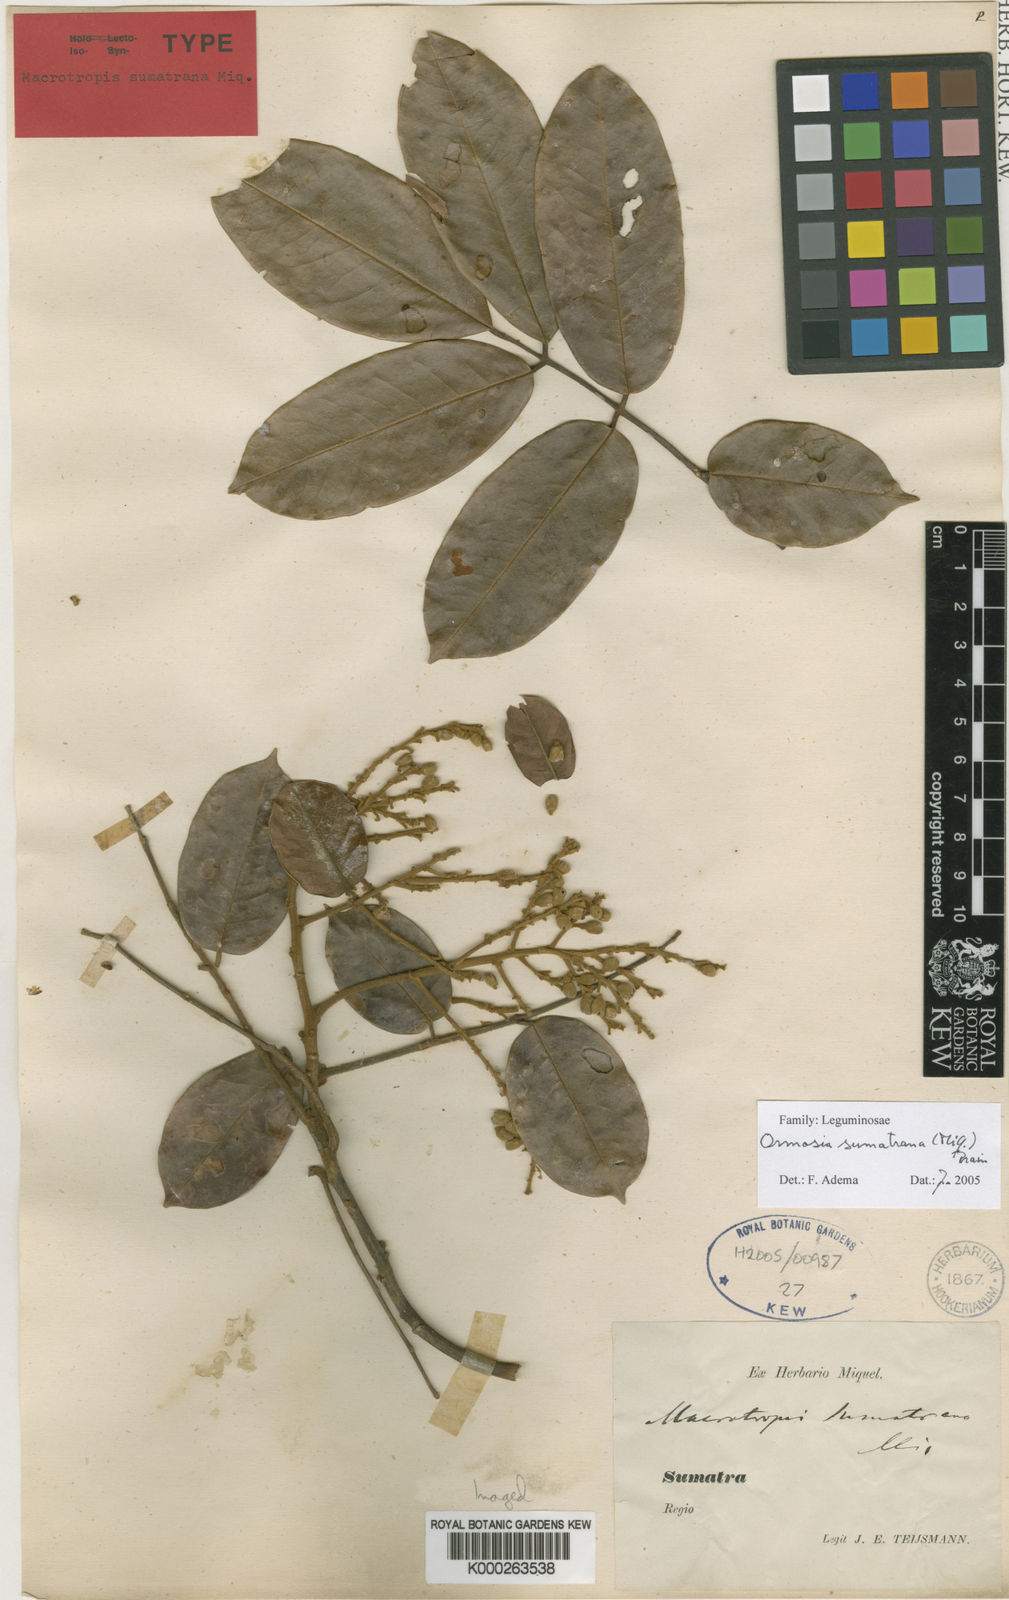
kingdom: Plantae
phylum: Tracheophyta
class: Magnoliopsida
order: Fabales
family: Fabaceae
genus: Ormosia
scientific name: Ormosia
